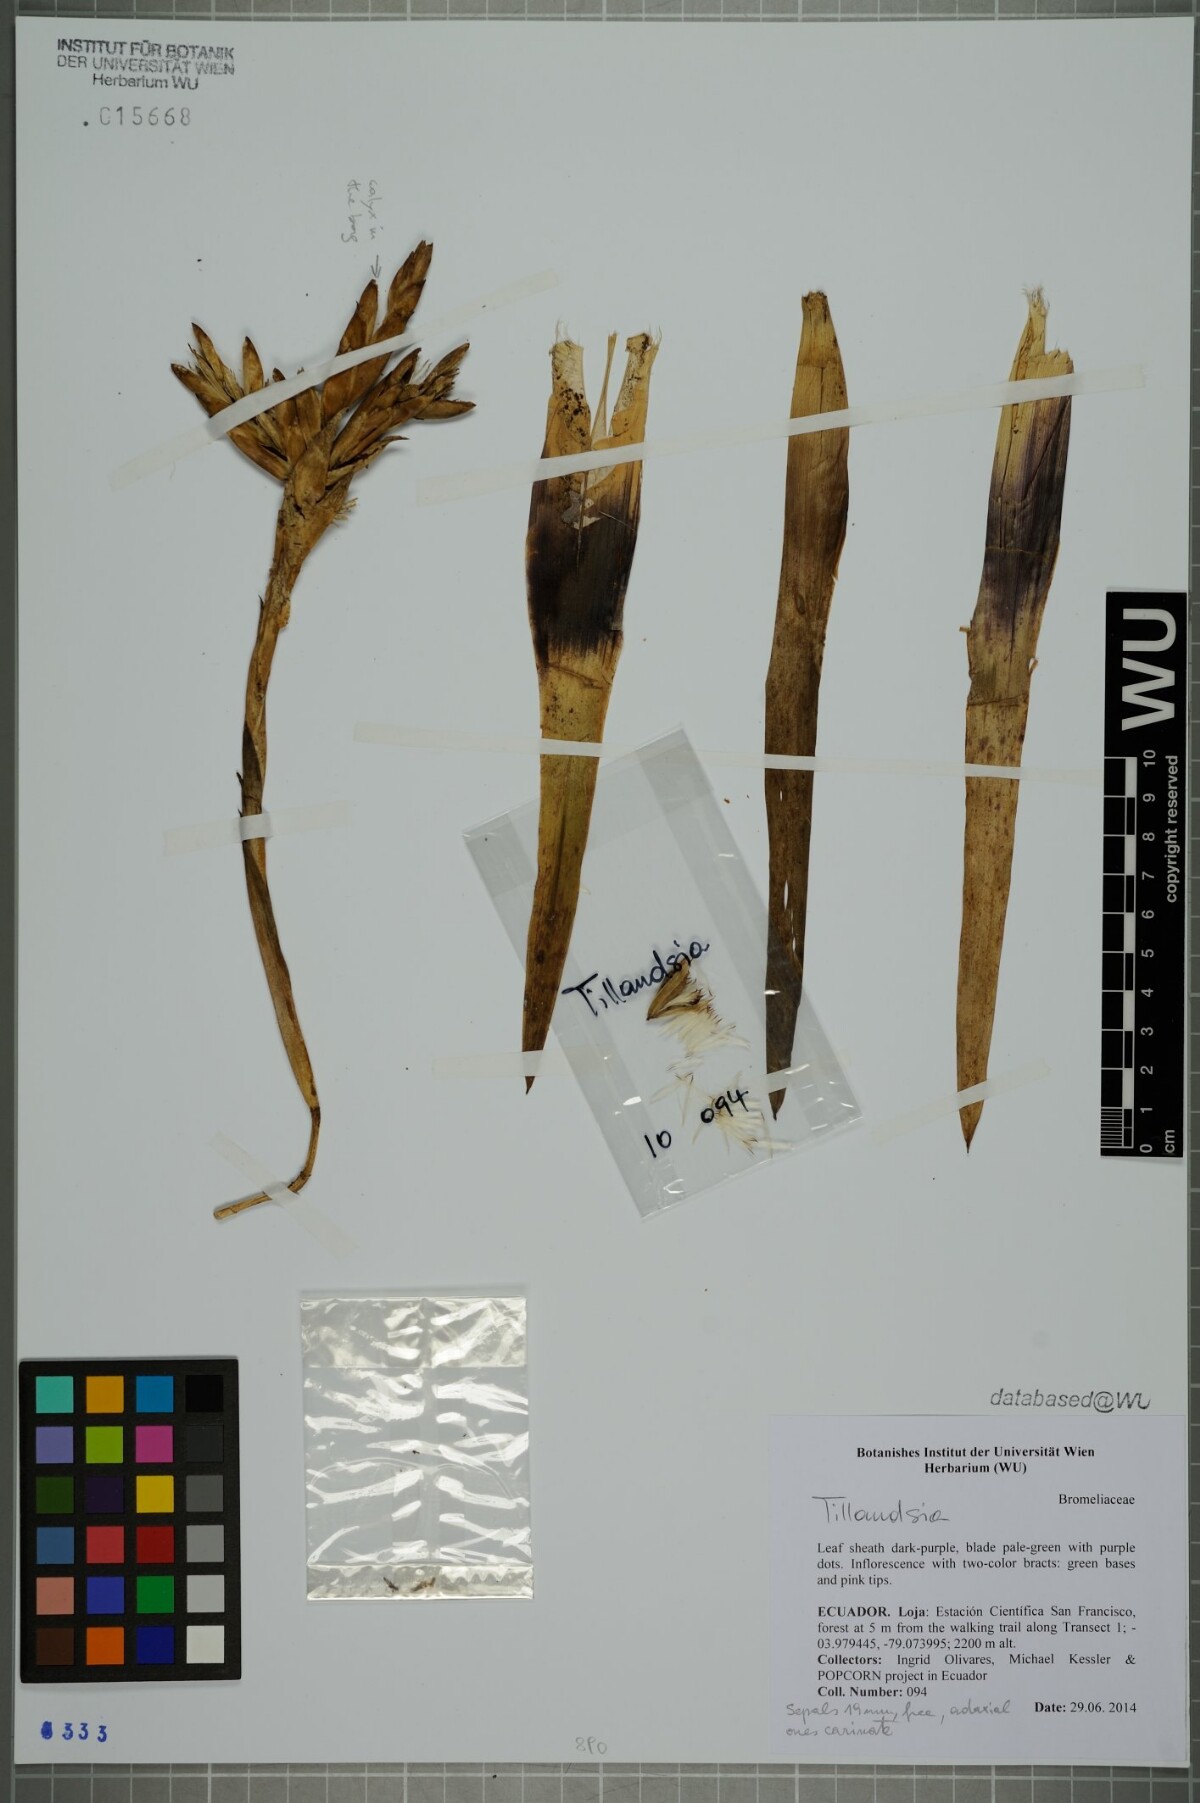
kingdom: Plantae
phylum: Tracheophyta
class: Liliopsida
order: Poales
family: Bromeliaceae
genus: Tillandsia
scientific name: Tillandsia
